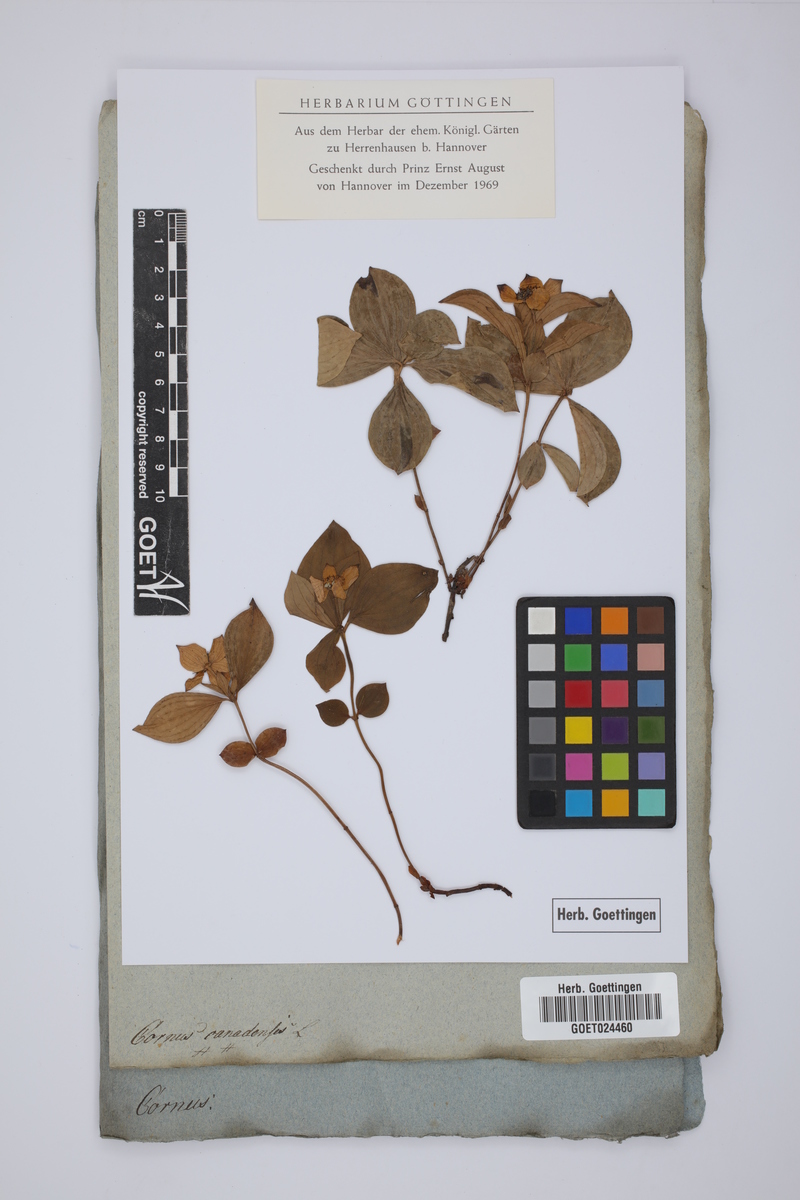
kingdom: Plantae
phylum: Tracheophyta
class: Magnoliopsida
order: Cornales
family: Cornaceae
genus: Cornus
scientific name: Cornus canadensis
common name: Creeping dogwood
